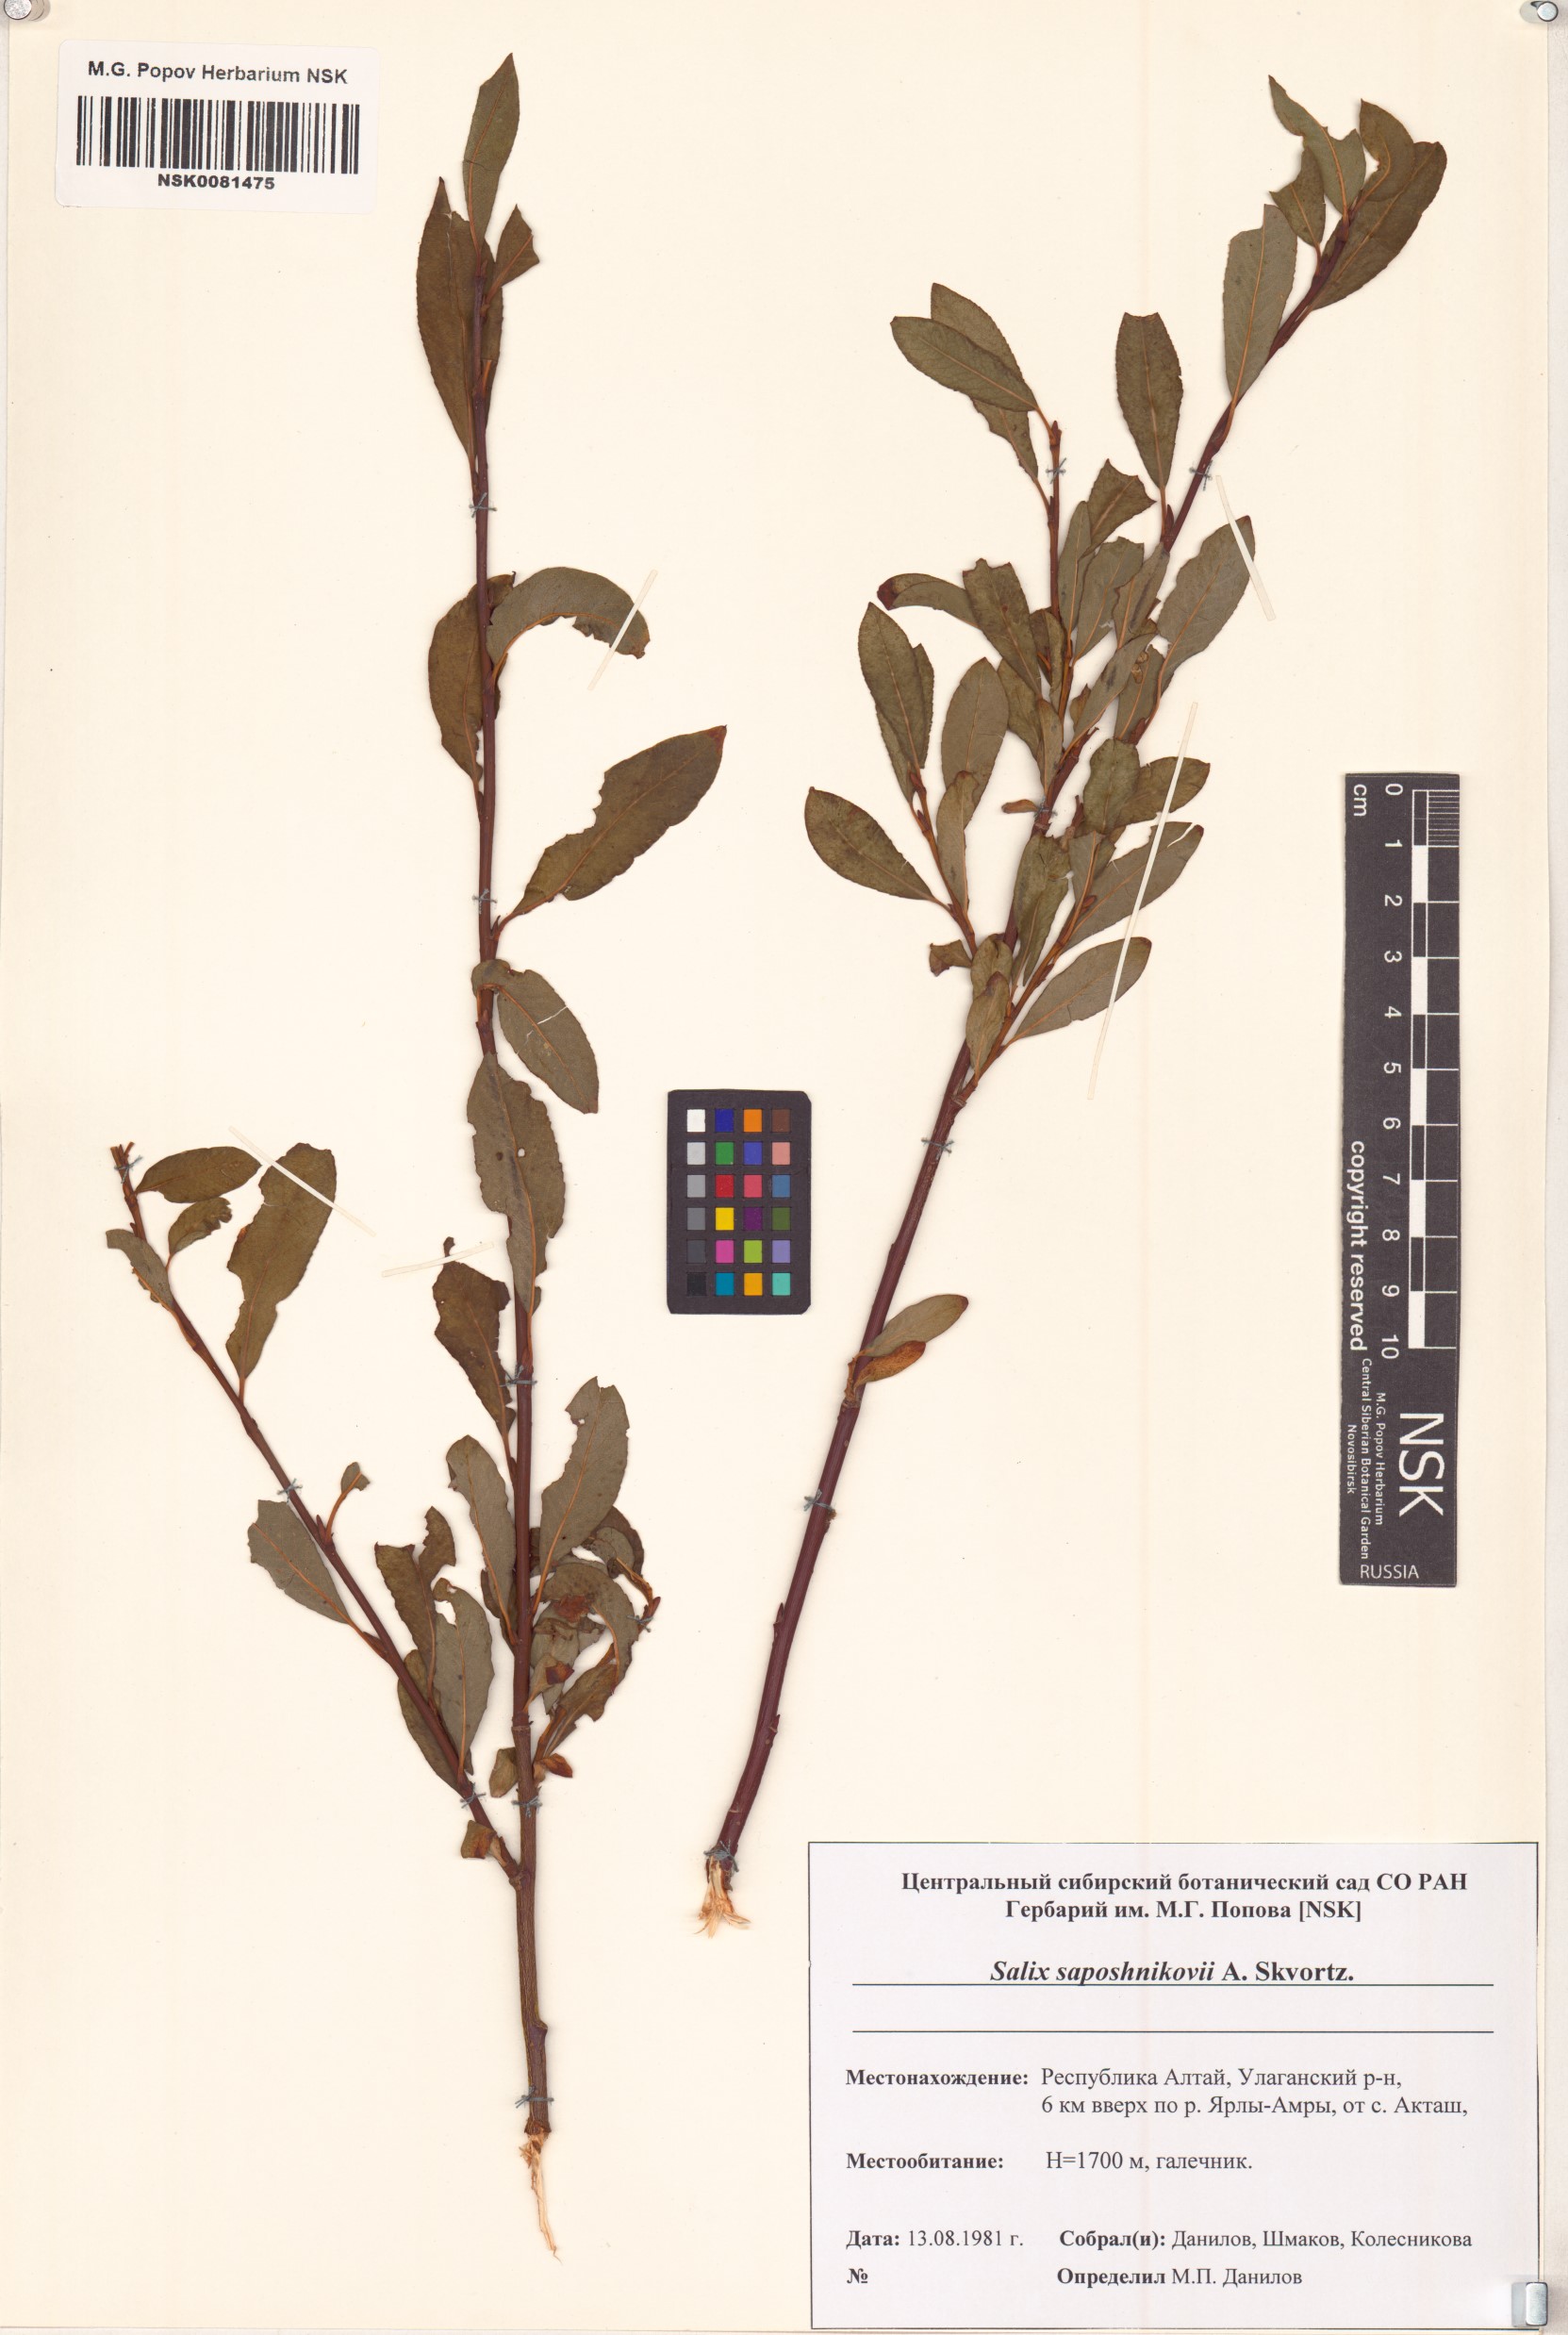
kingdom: Plantae
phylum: Tracheophyta
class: Magnoliopsida
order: Malpighiales
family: Salicaceae
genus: Salix
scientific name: Salix saposhnikovii
